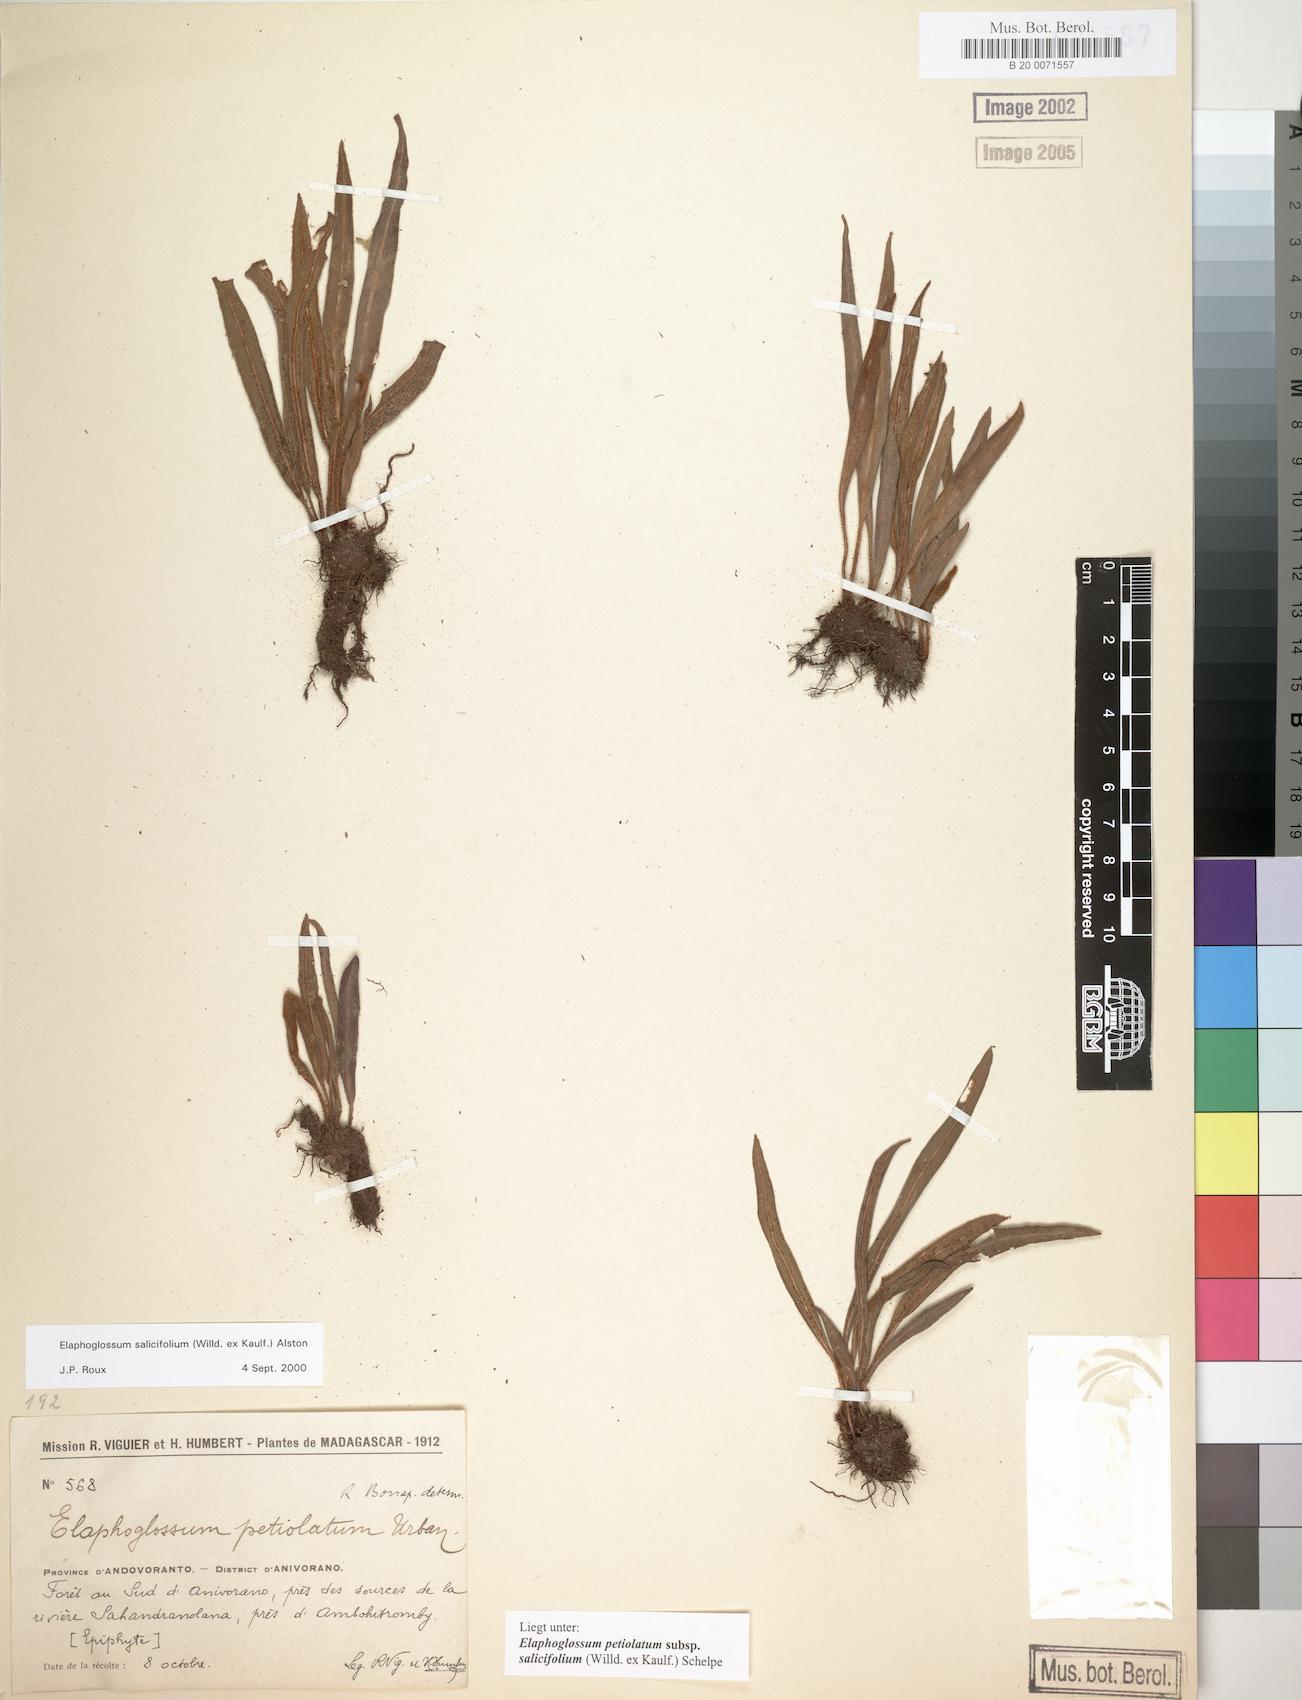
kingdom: Plantae
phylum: Tracheophyta
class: Polypodiopsida
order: Polypodiales
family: Dryopteridaceae
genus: Elaphoglossum
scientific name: Elaphoglossum lancifolium
